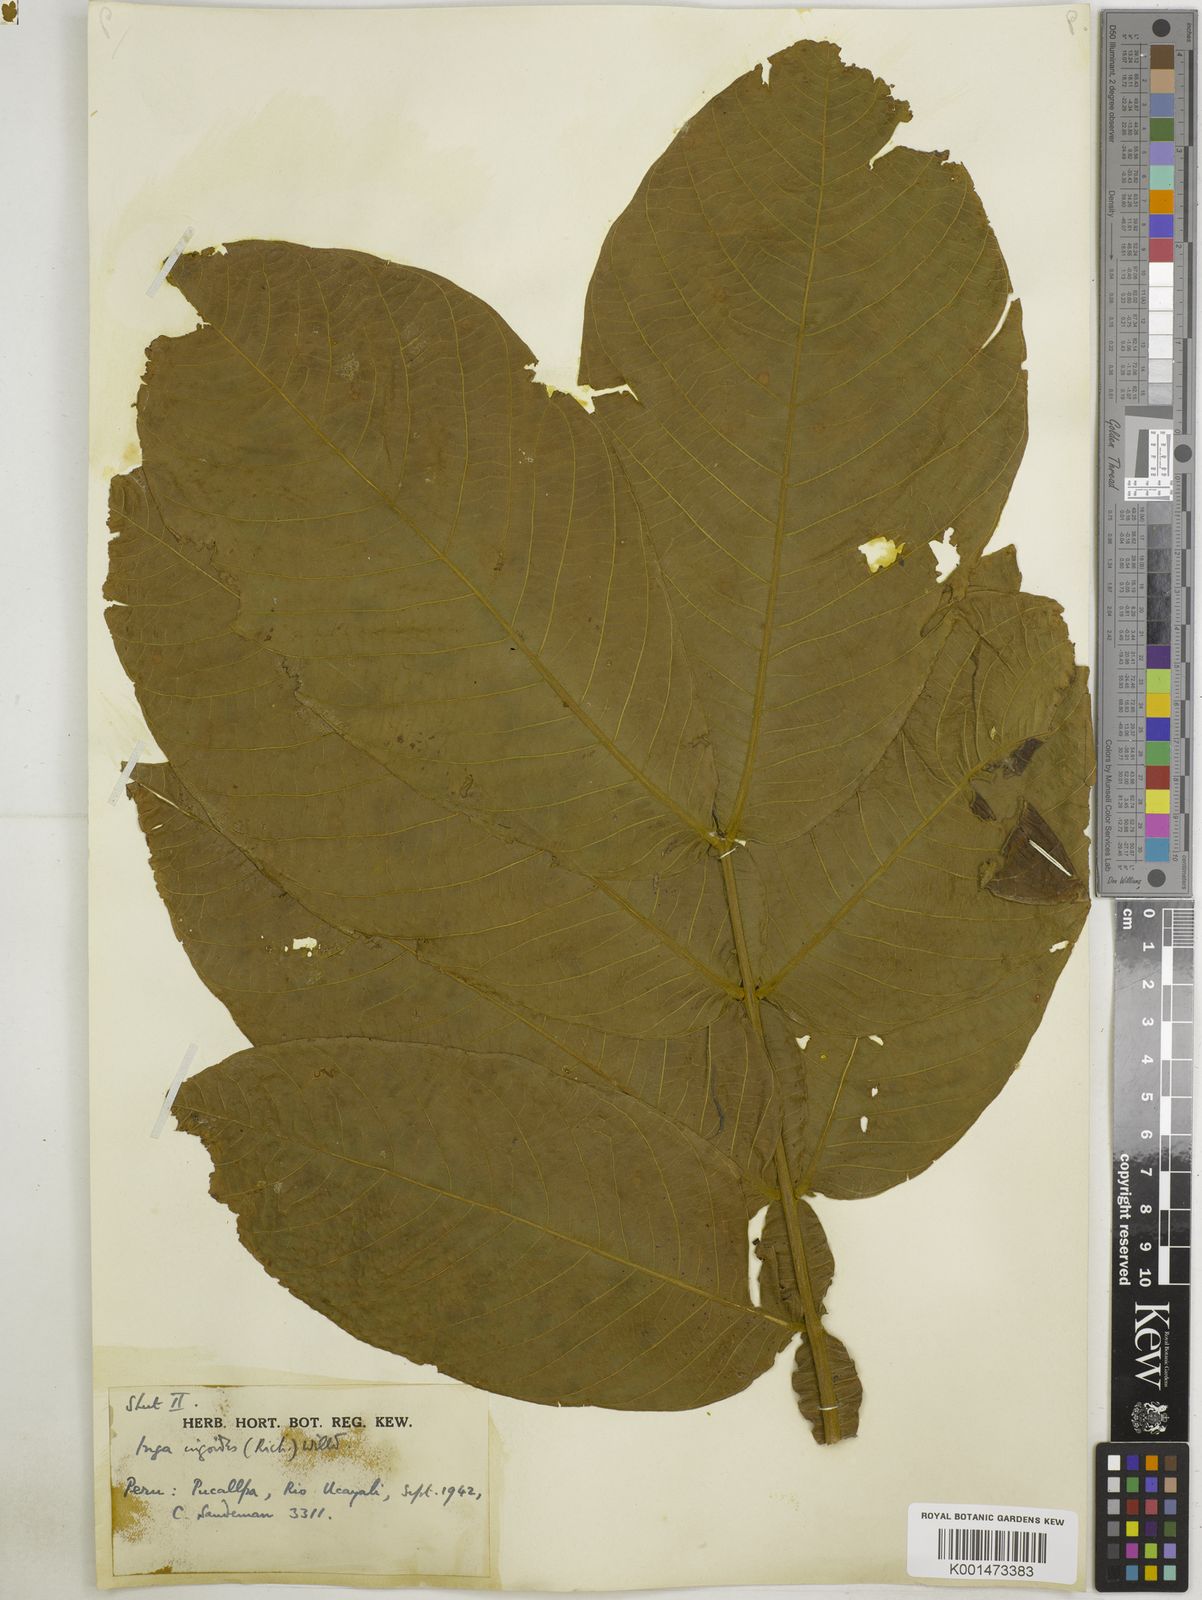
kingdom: Plantae
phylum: Tracheophyta
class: Magnoliopsida
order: Fabales
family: Fabaceae
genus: Inga
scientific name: Inga
